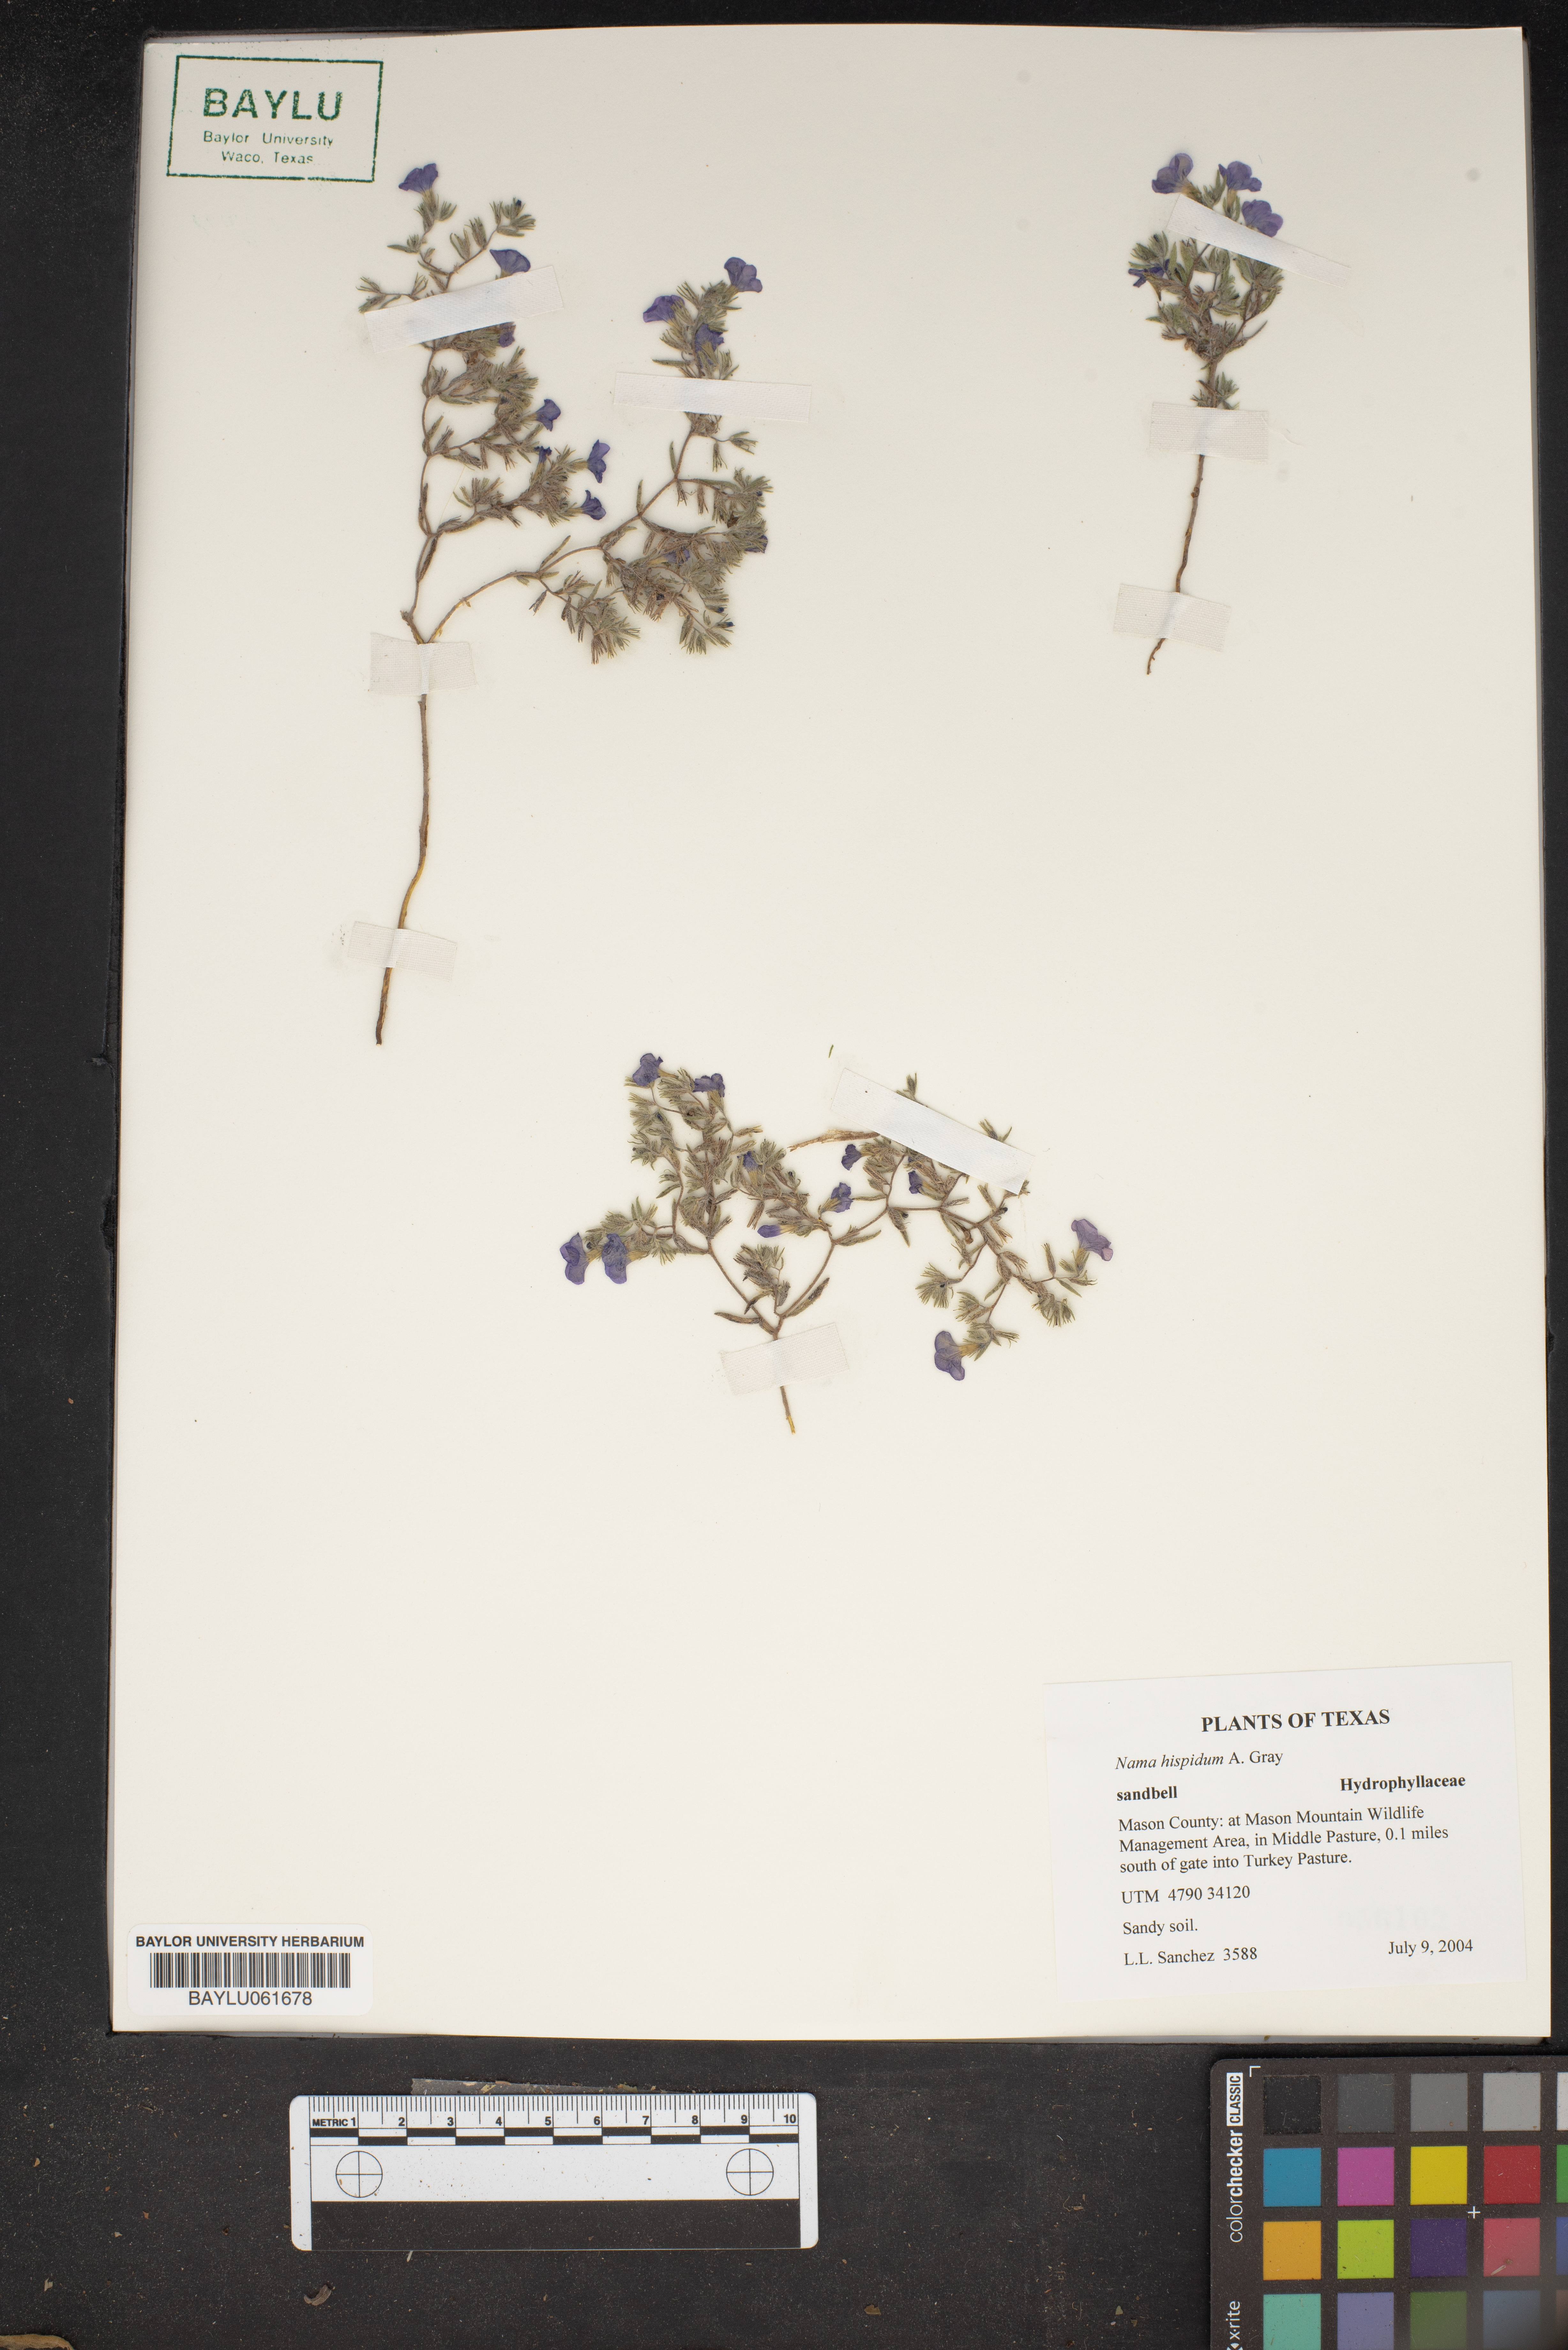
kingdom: Plantae
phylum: Tracheophyta
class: Magnoliopsida
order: Boraginales
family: Namaceae
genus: Nama
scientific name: Nama hispida
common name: Bristly nama
